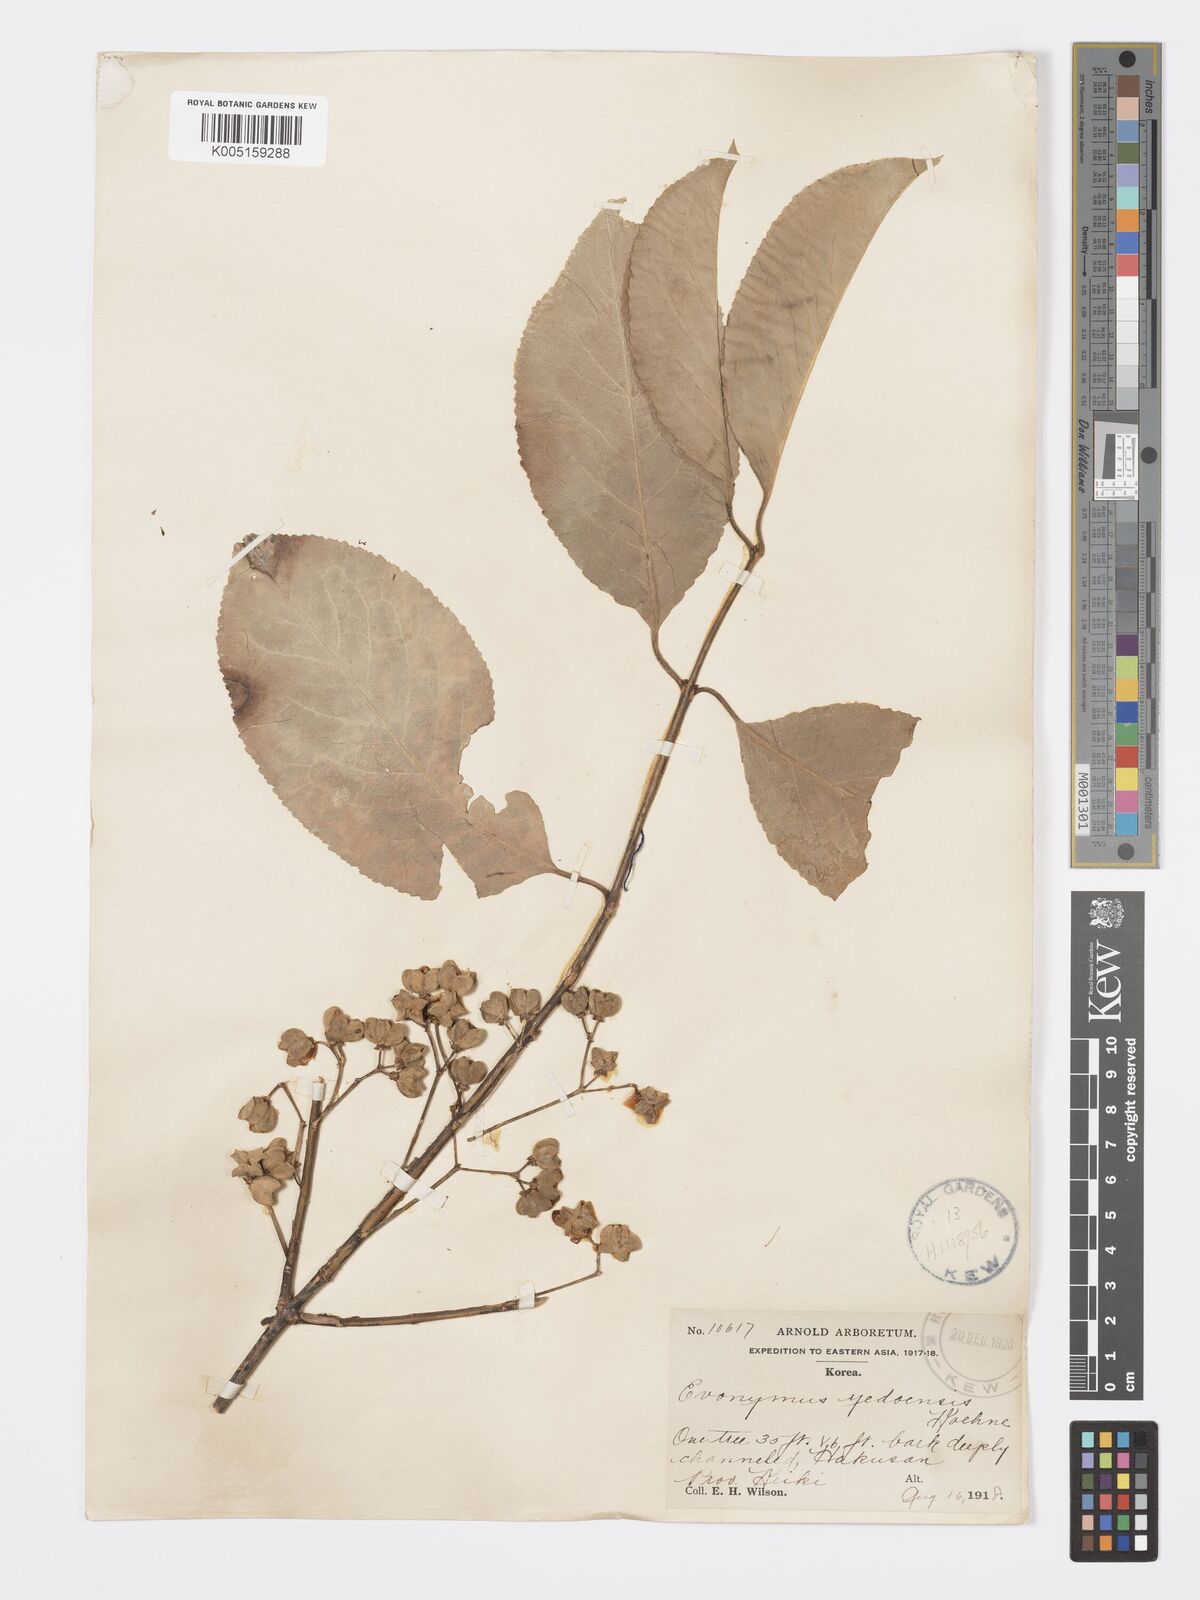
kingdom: Plantae
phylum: Tracheophyta
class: Magnoliopsida
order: Celastrales
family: Celastraceae
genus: Euonymus
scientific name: Euonymus hamiltonianus
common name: Hamilton's spindletree
